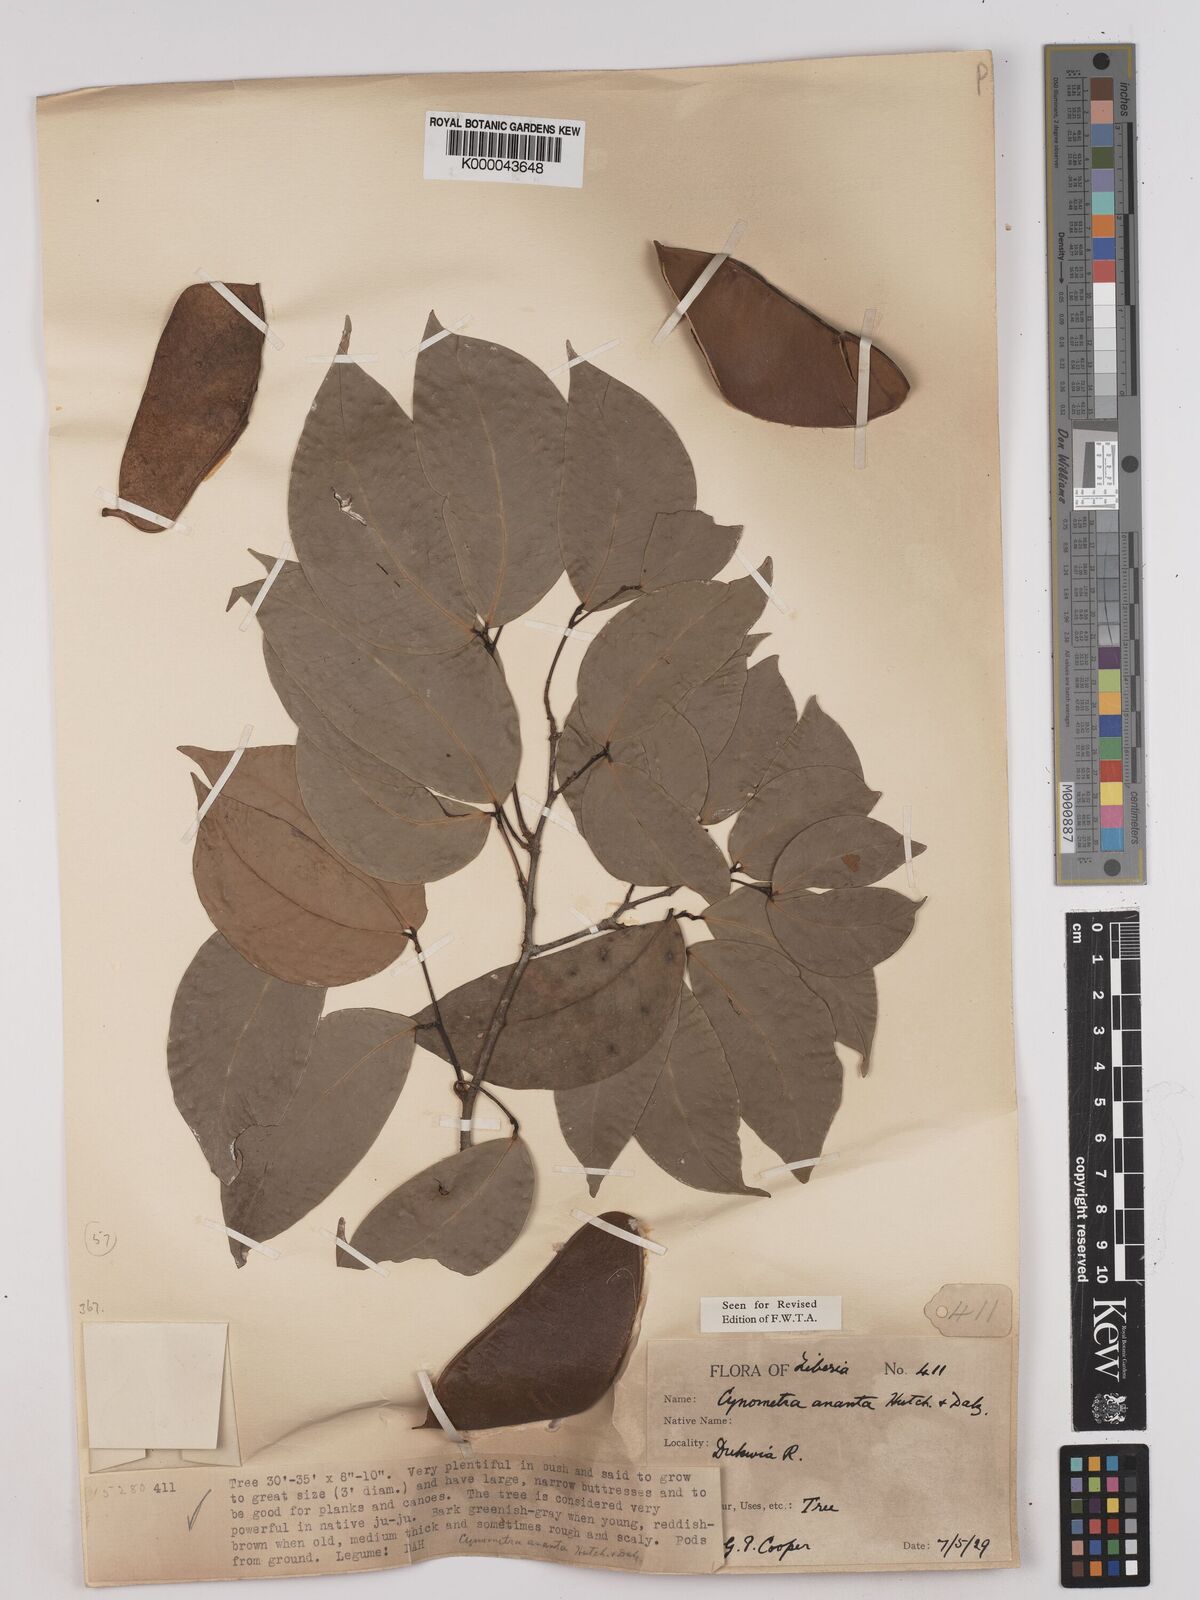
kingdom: Plantae
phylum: Tracheophyta
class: Magnoliopsida
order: Fabales
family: Fabaceae
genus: Cynometra
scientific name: Cynometra ananta
